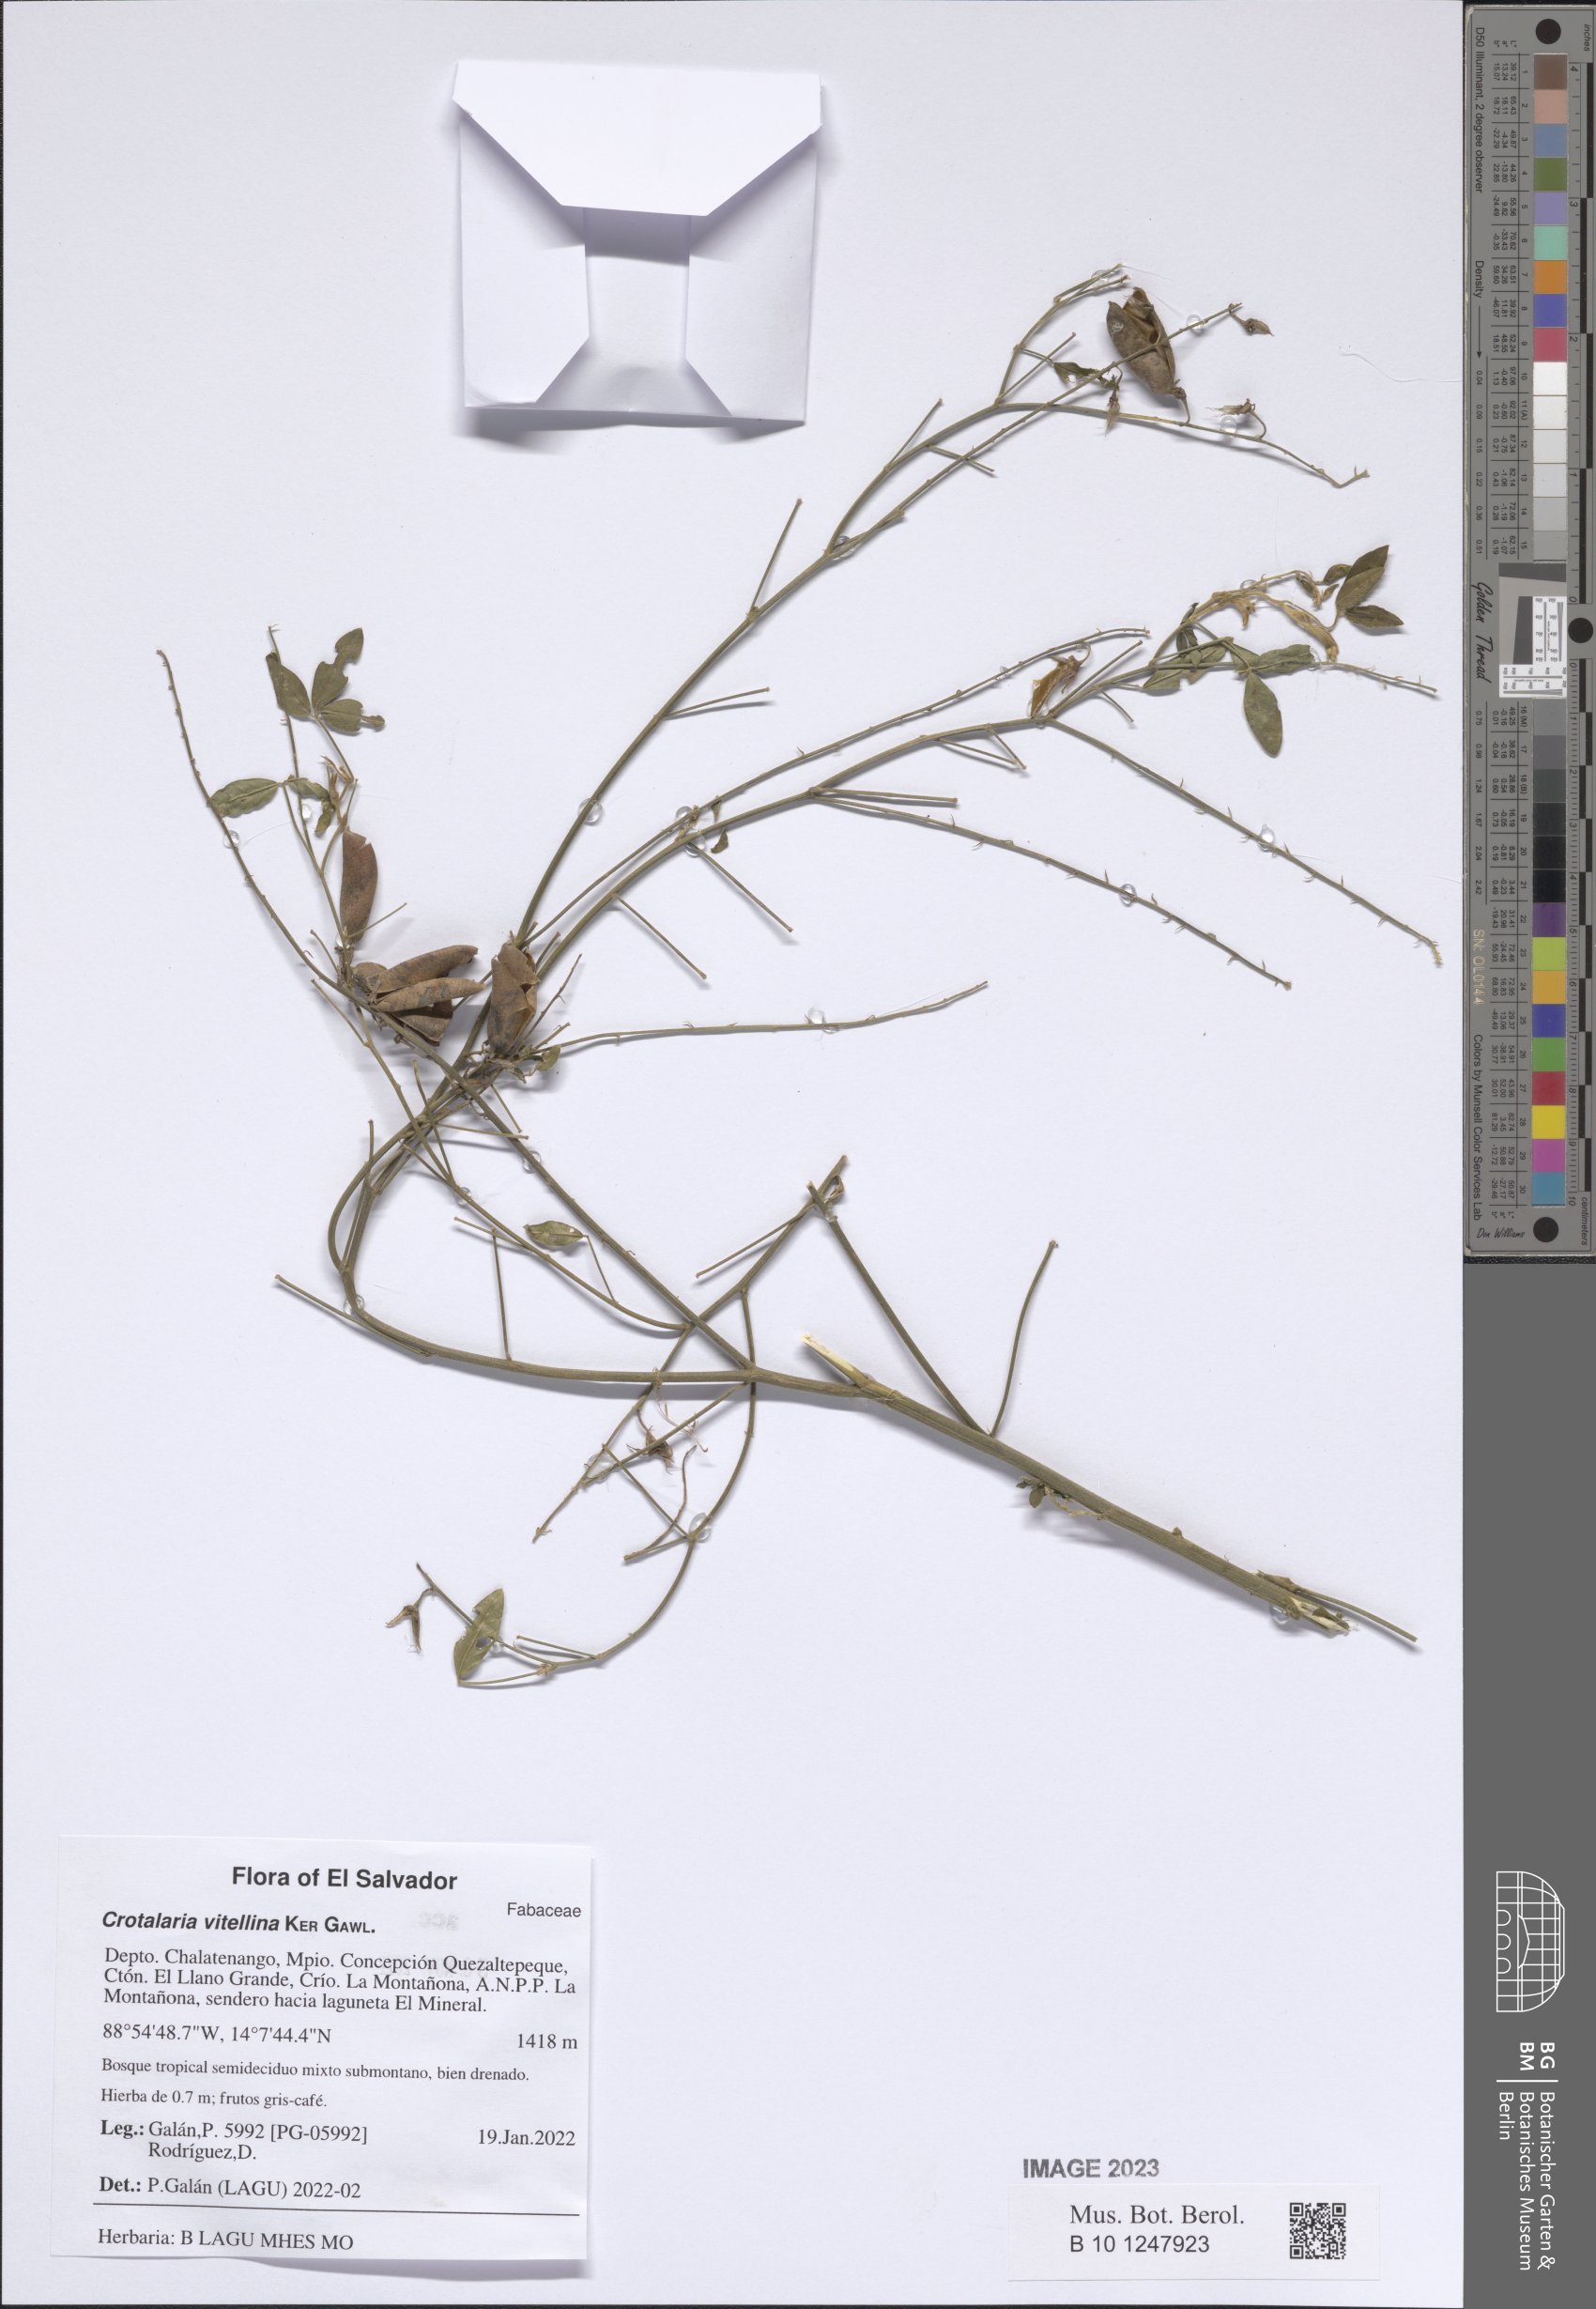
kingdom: Plantae
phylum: Tracheophyta
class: Magnoliopsida
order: Fabales
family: Fabaceae
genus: Crotalaria
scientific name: Crotalaria vitellina
